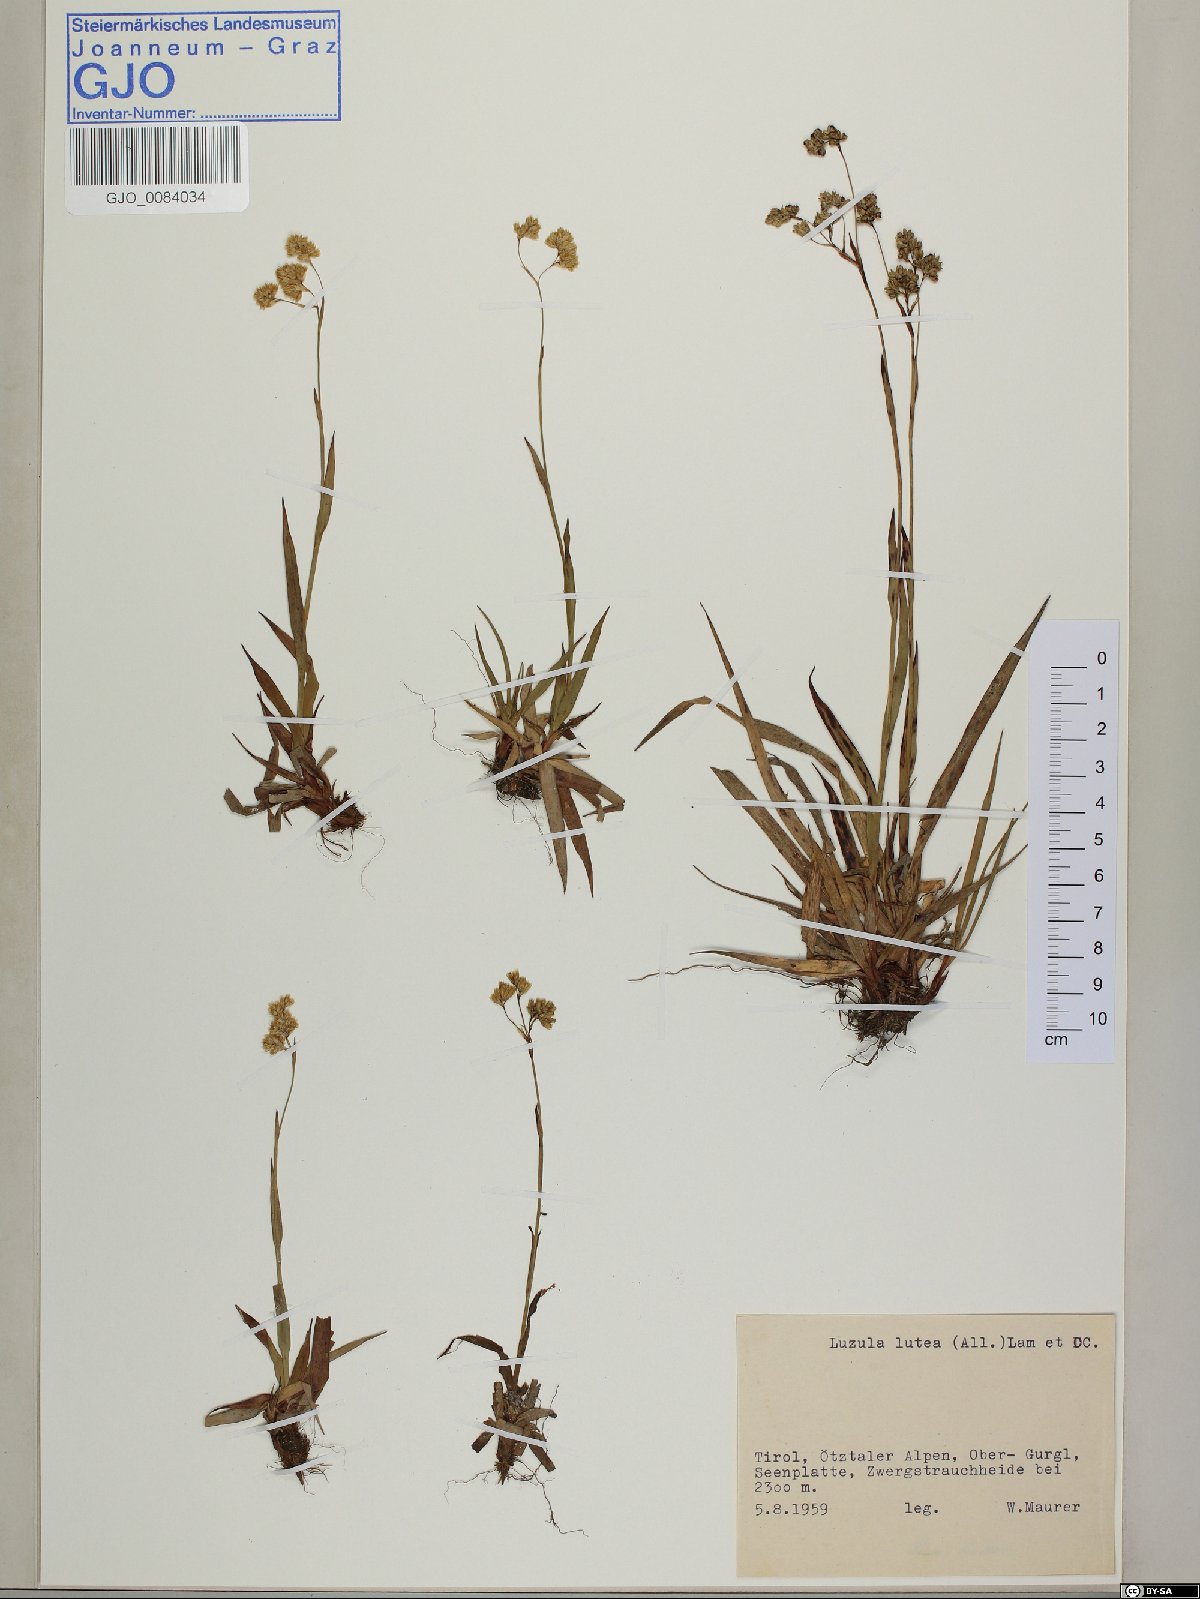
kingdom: Plantae
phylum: Tracheophyta
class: Liliopsida
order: Poales
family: Juncaceae
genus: Luzula
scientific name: Luzula lutea
